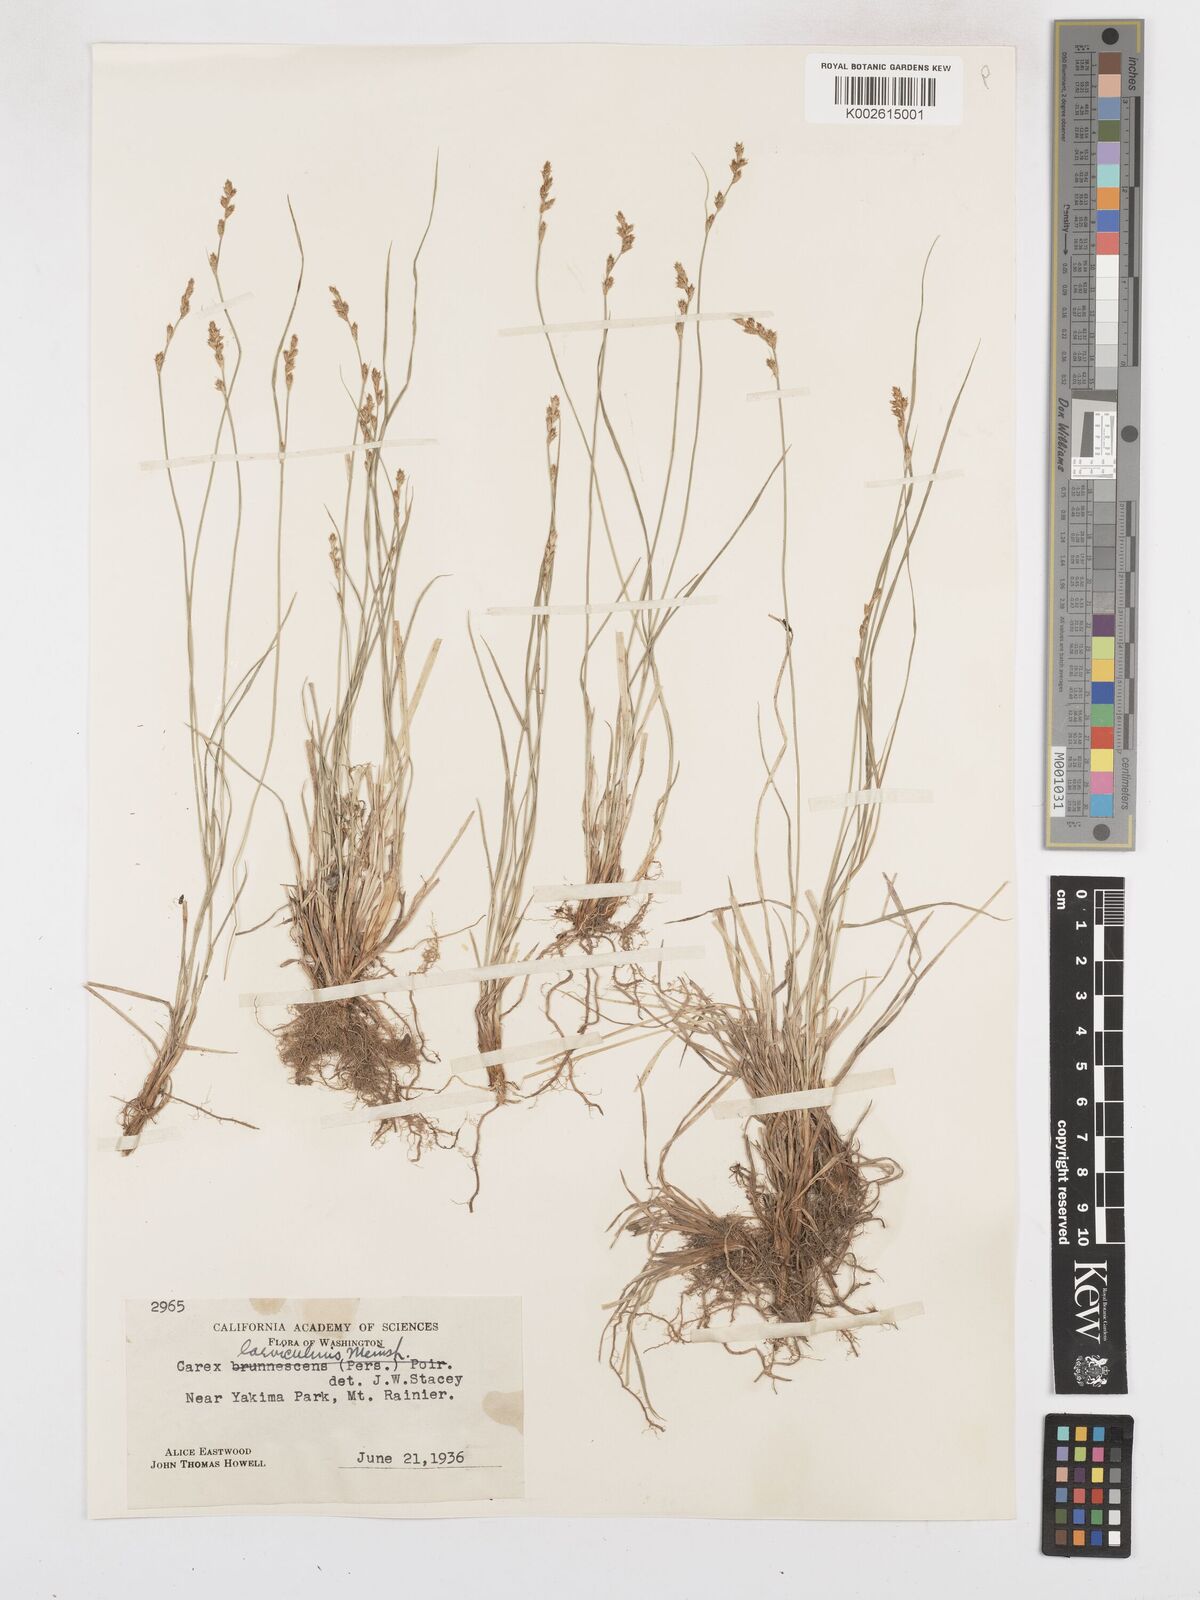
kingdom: Plantae
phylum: Tracheophyta
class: Liliopsida
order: Poales
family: Cyperaceae
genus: Carex
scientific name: Carex laeviculmis
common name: Smooth sedge
